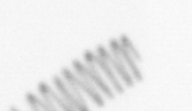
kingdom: Chromista
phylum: Ochrophyta
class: Bacillariophyceae
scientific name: Bacillariophyceae
